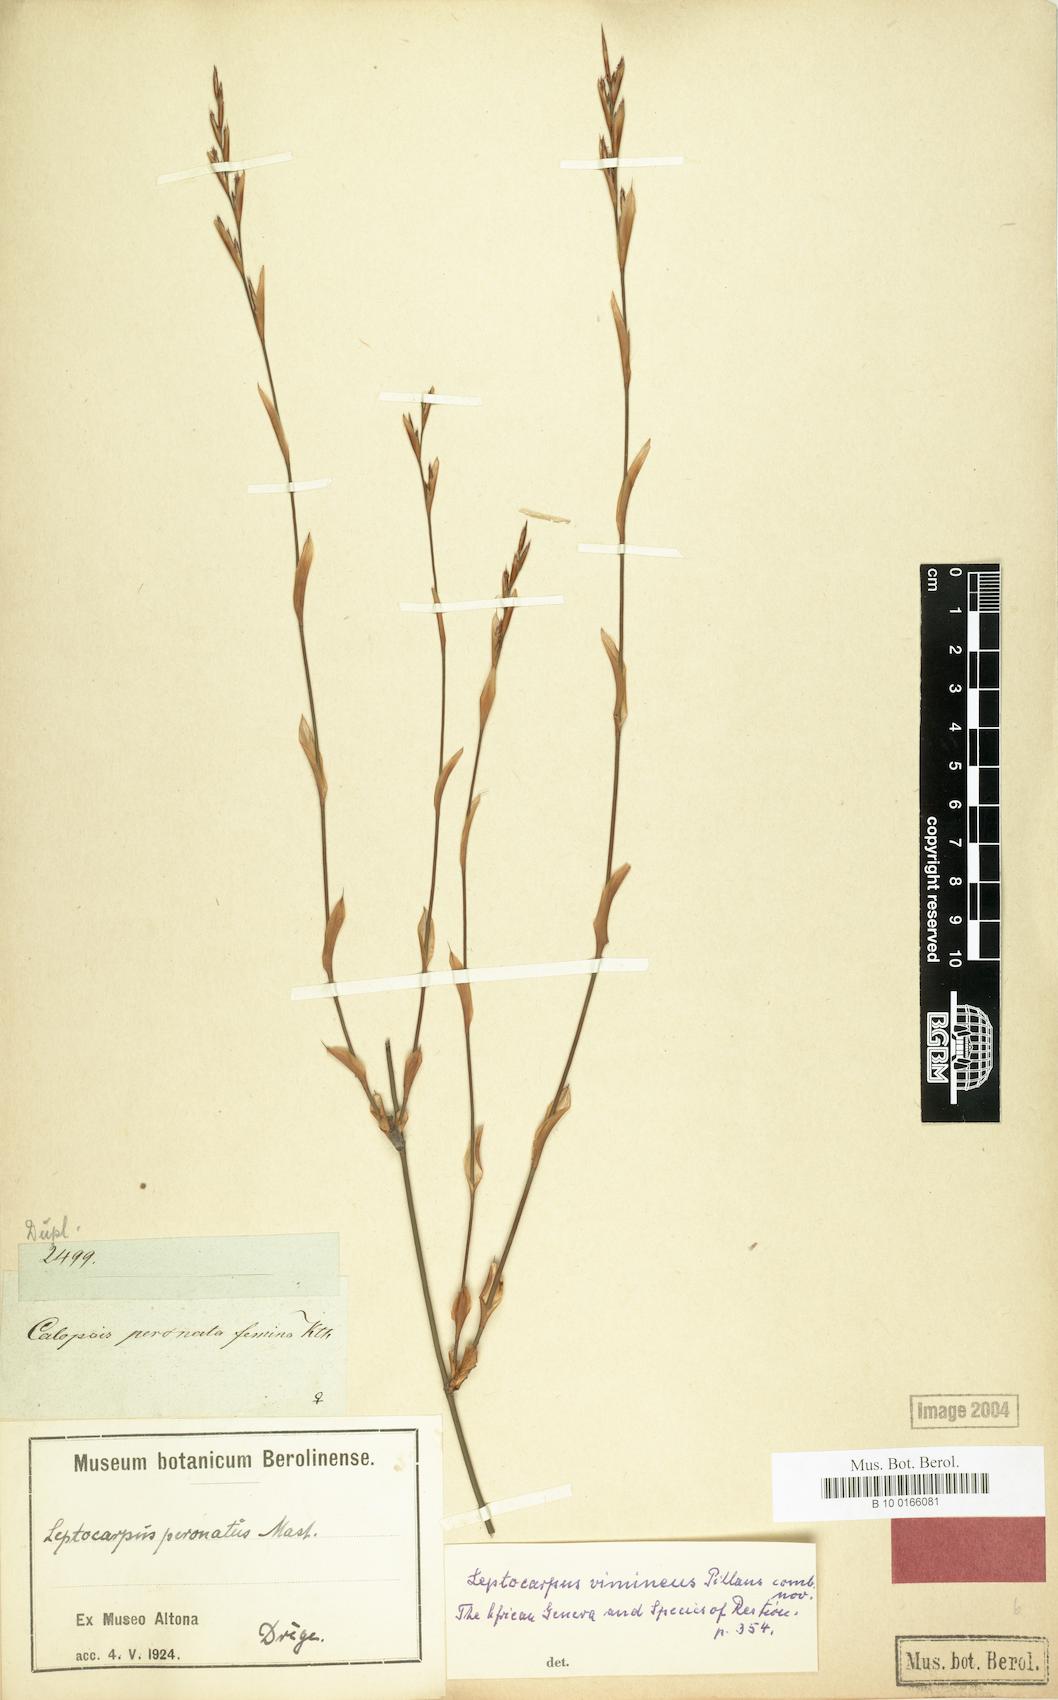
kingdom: Plantae
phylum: Tracheophyta
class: Liliopsida
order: Poales
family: Restionaceae
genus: Restio
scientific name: Restio vimineus
